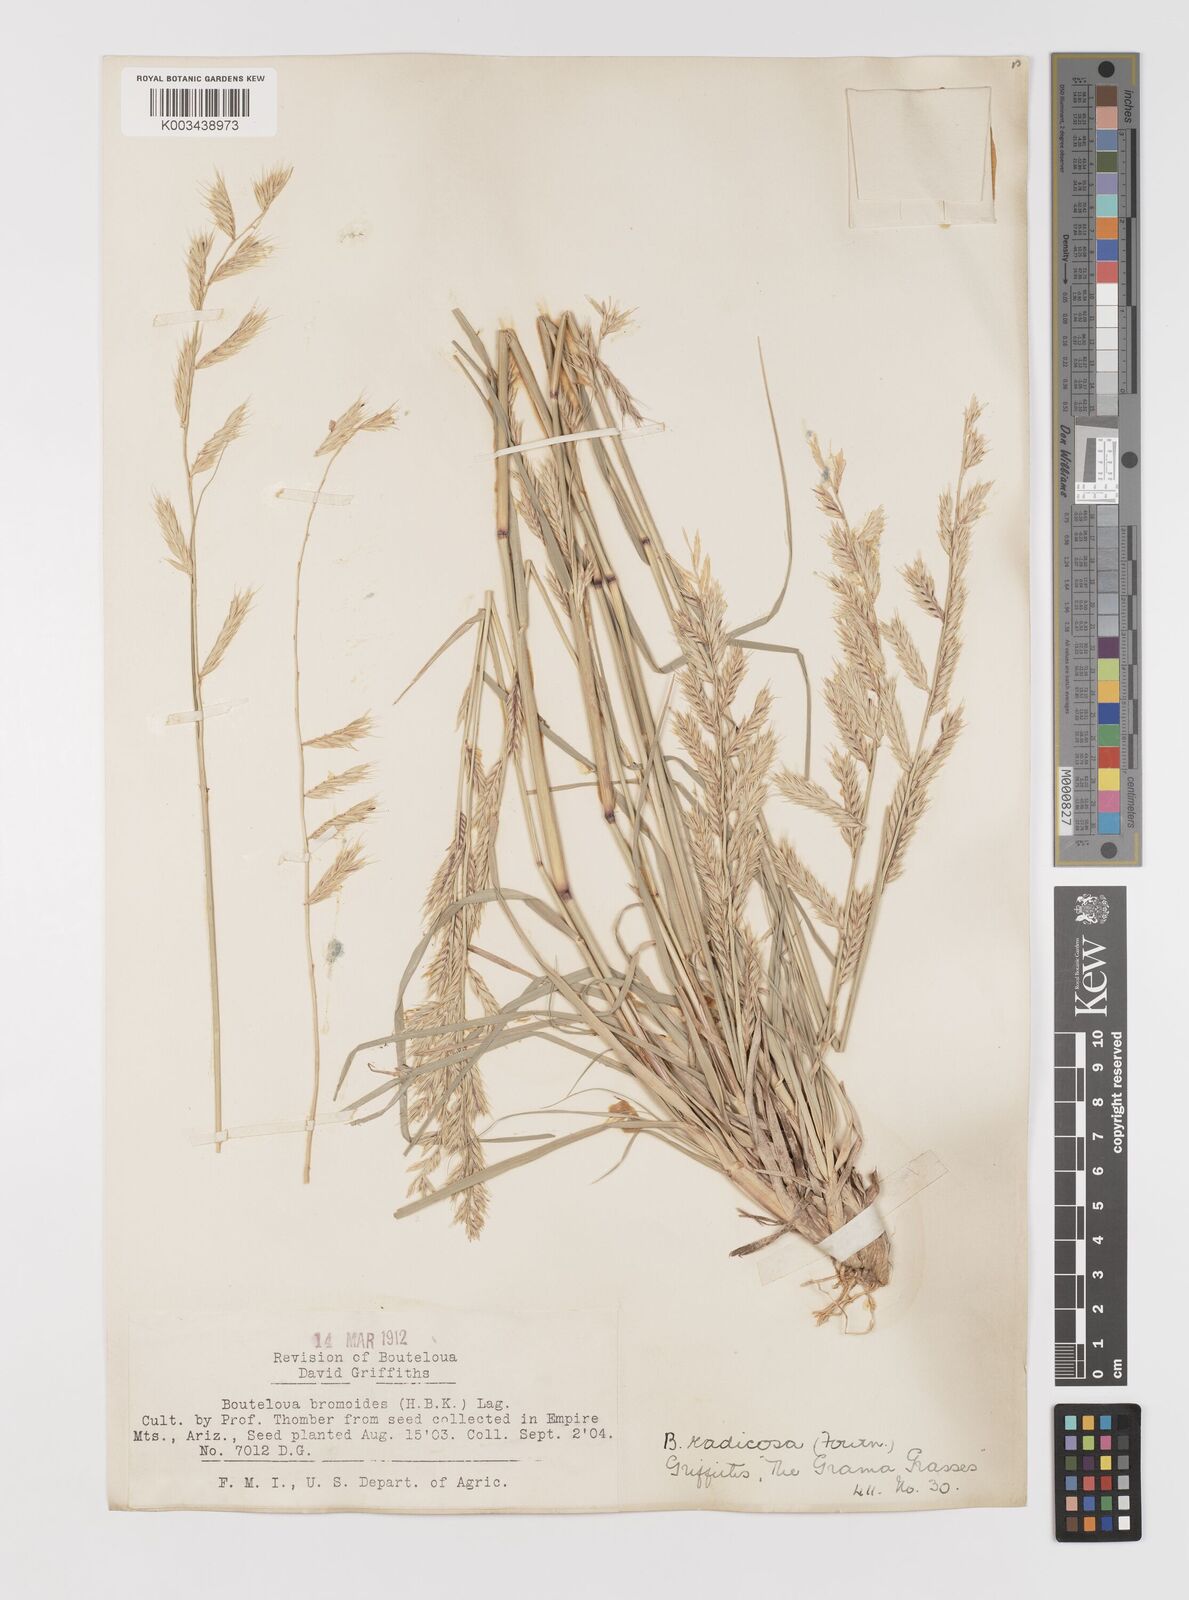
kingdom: Plantae
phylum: Tracheophyta
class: Liliopsida
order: Poales
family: Poaceae
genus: Bouteloua
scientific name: Bouteloua radicosa
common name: Purple grama
